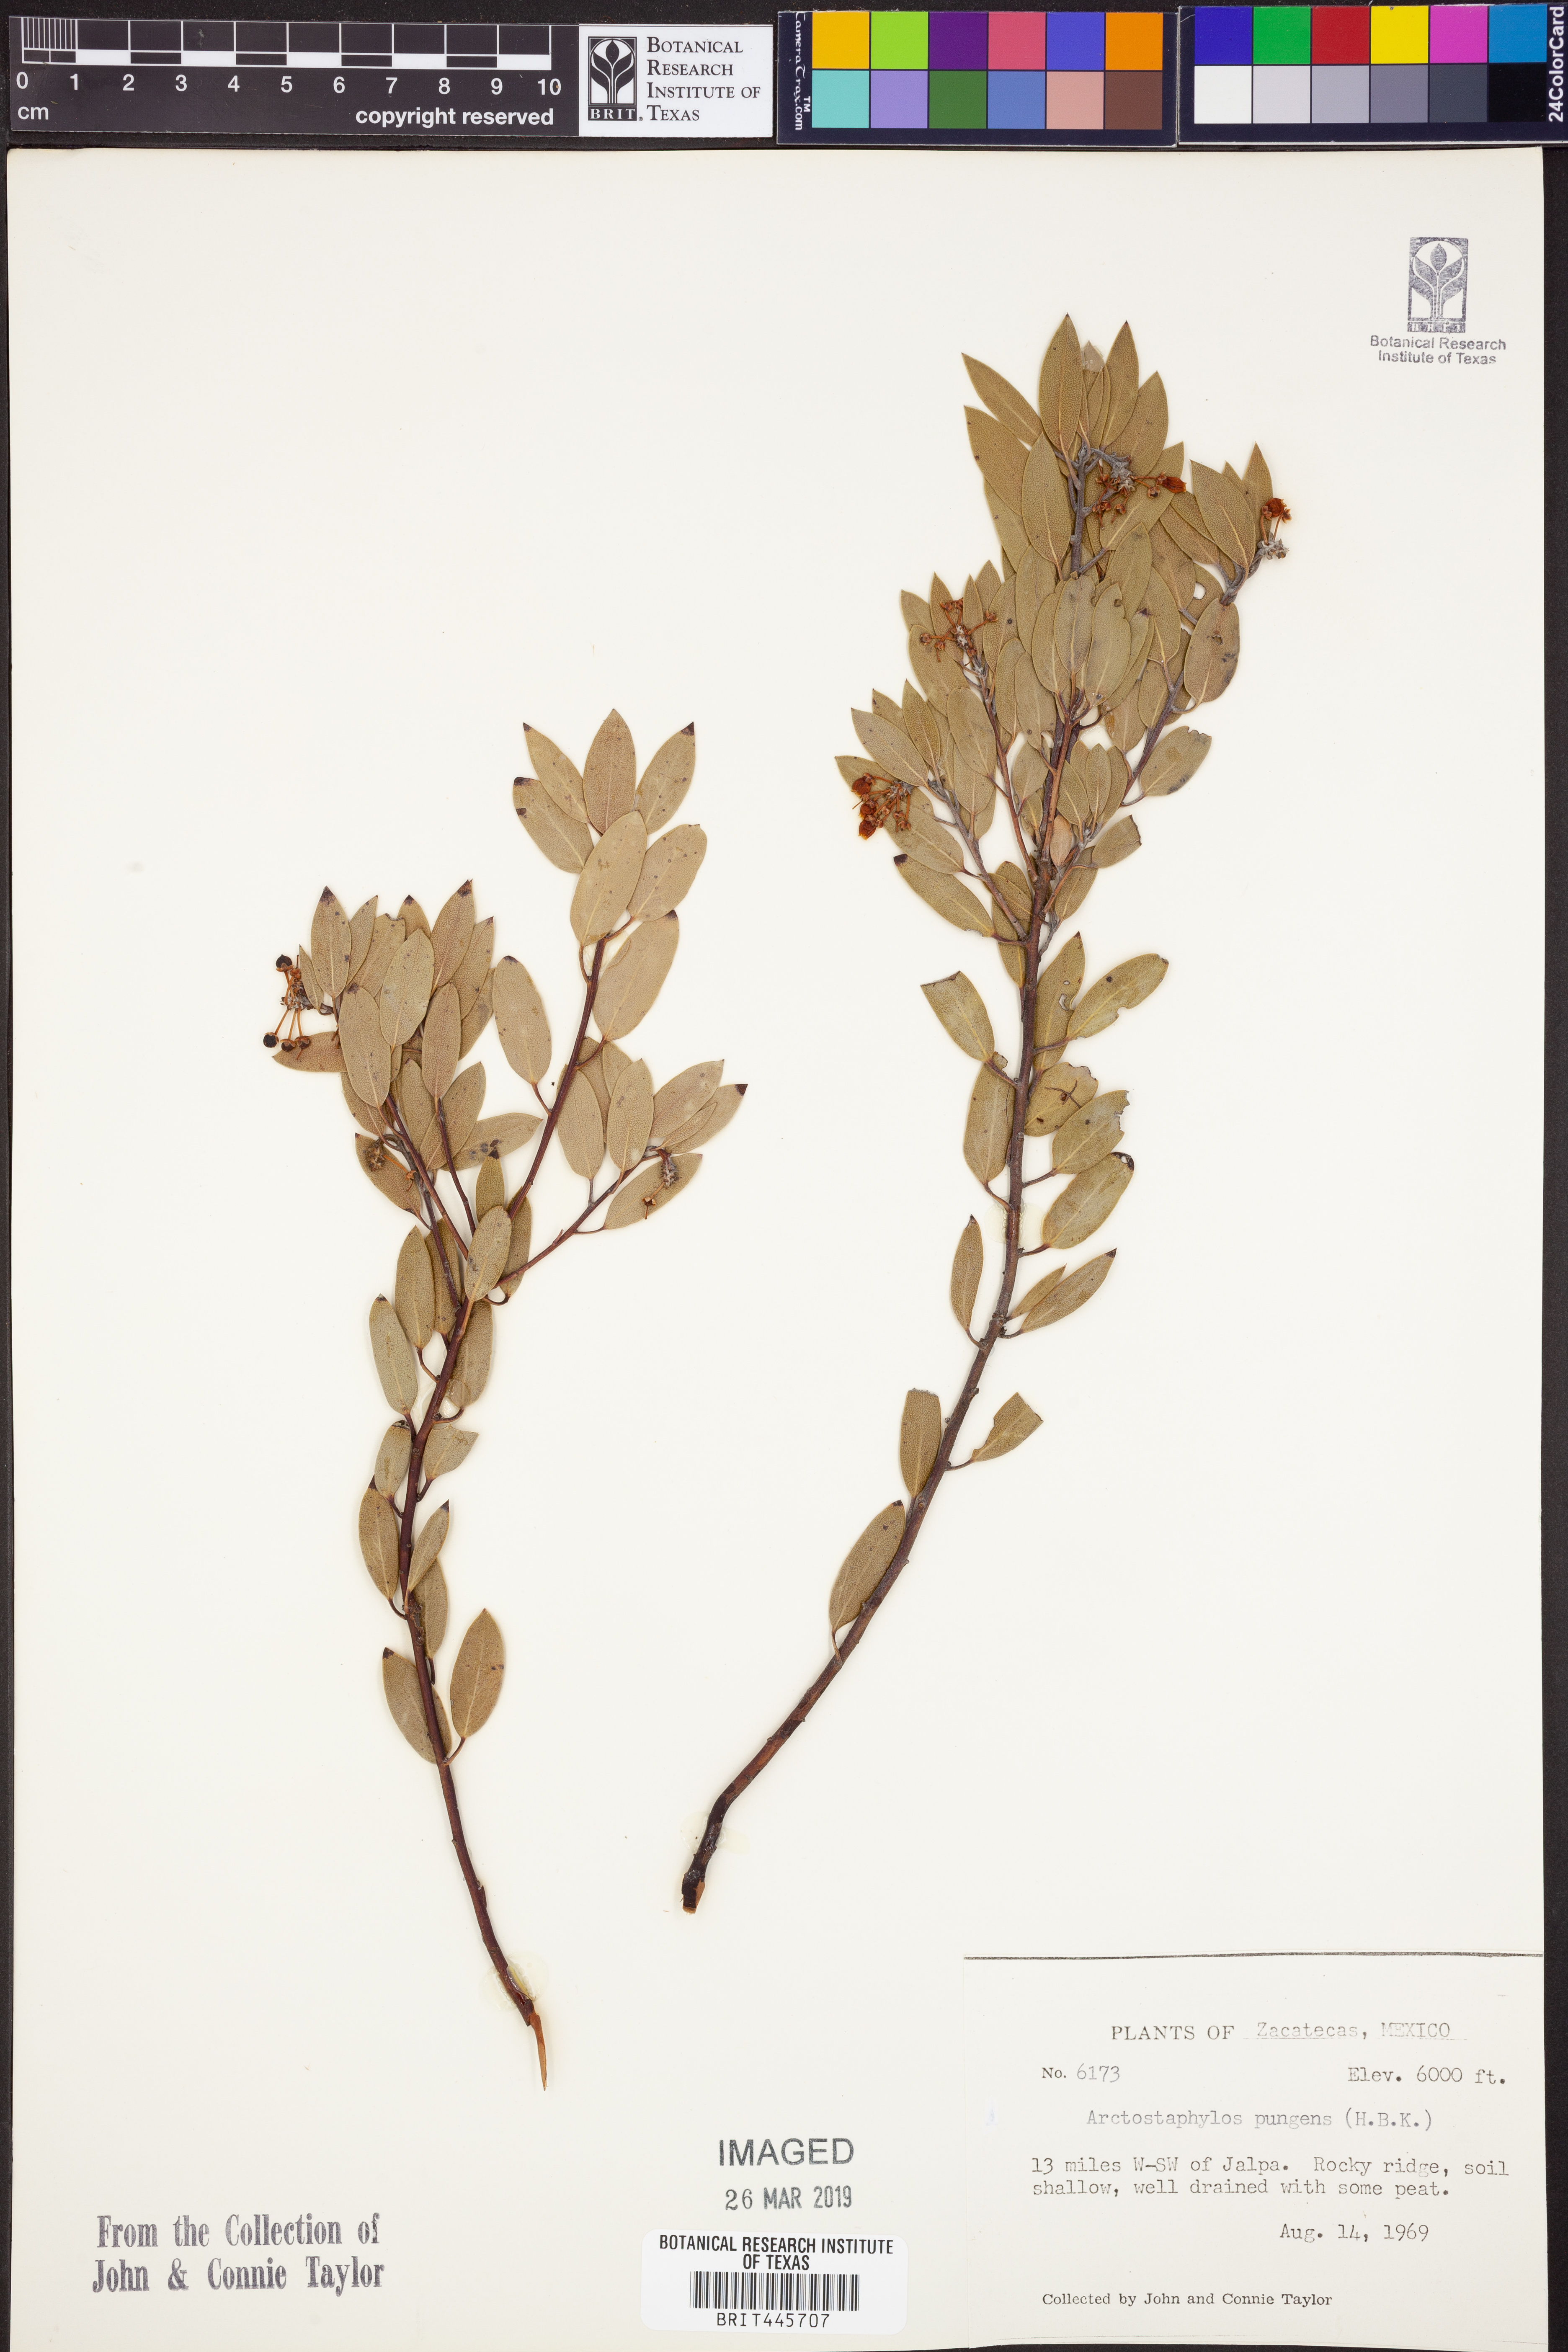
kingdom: Plantae
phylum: Tracheophyta
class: Magnoliopsida
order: Ericales
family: Ericaceae
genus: Arctostaphylos
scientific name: Arctostaphylos pungens
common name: Mexican manzanita
